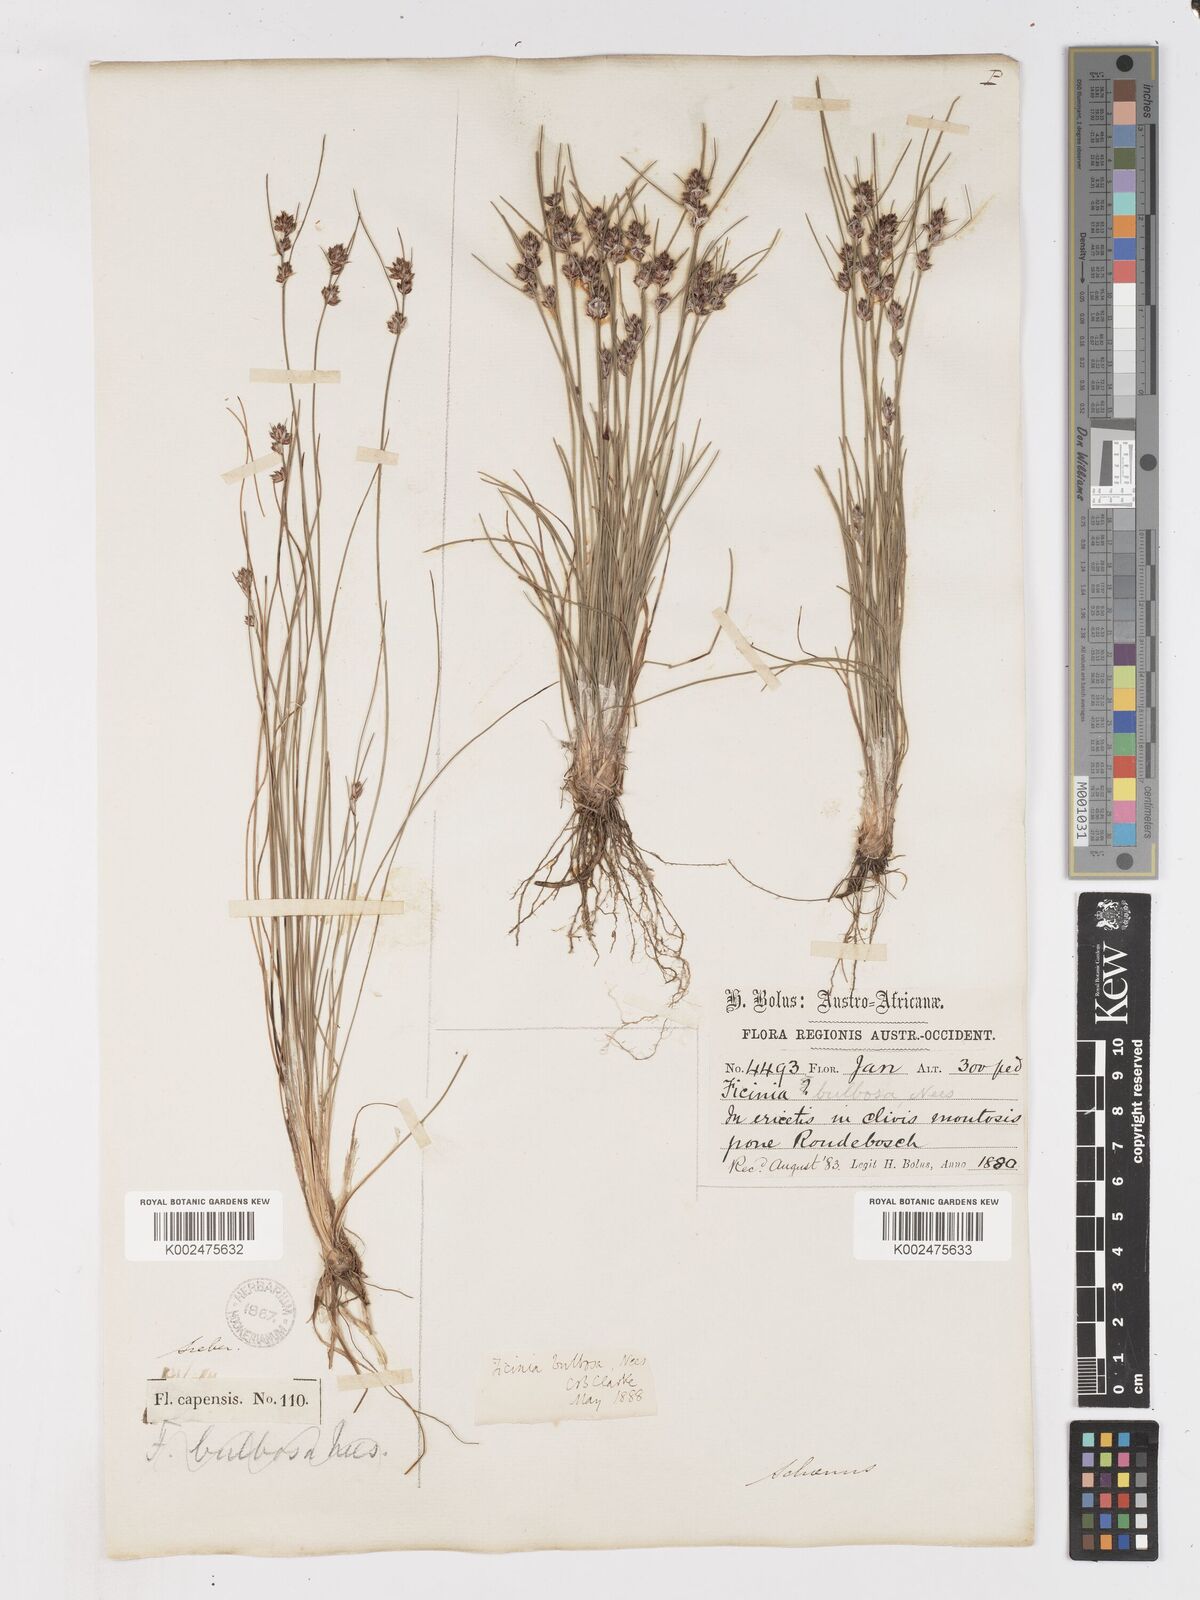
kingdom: Plantae
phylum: Tracheophyta
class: Liliopsida
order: Poales
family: Cyperaceae
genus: Ficinia
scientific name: Ficinia bulbosa
